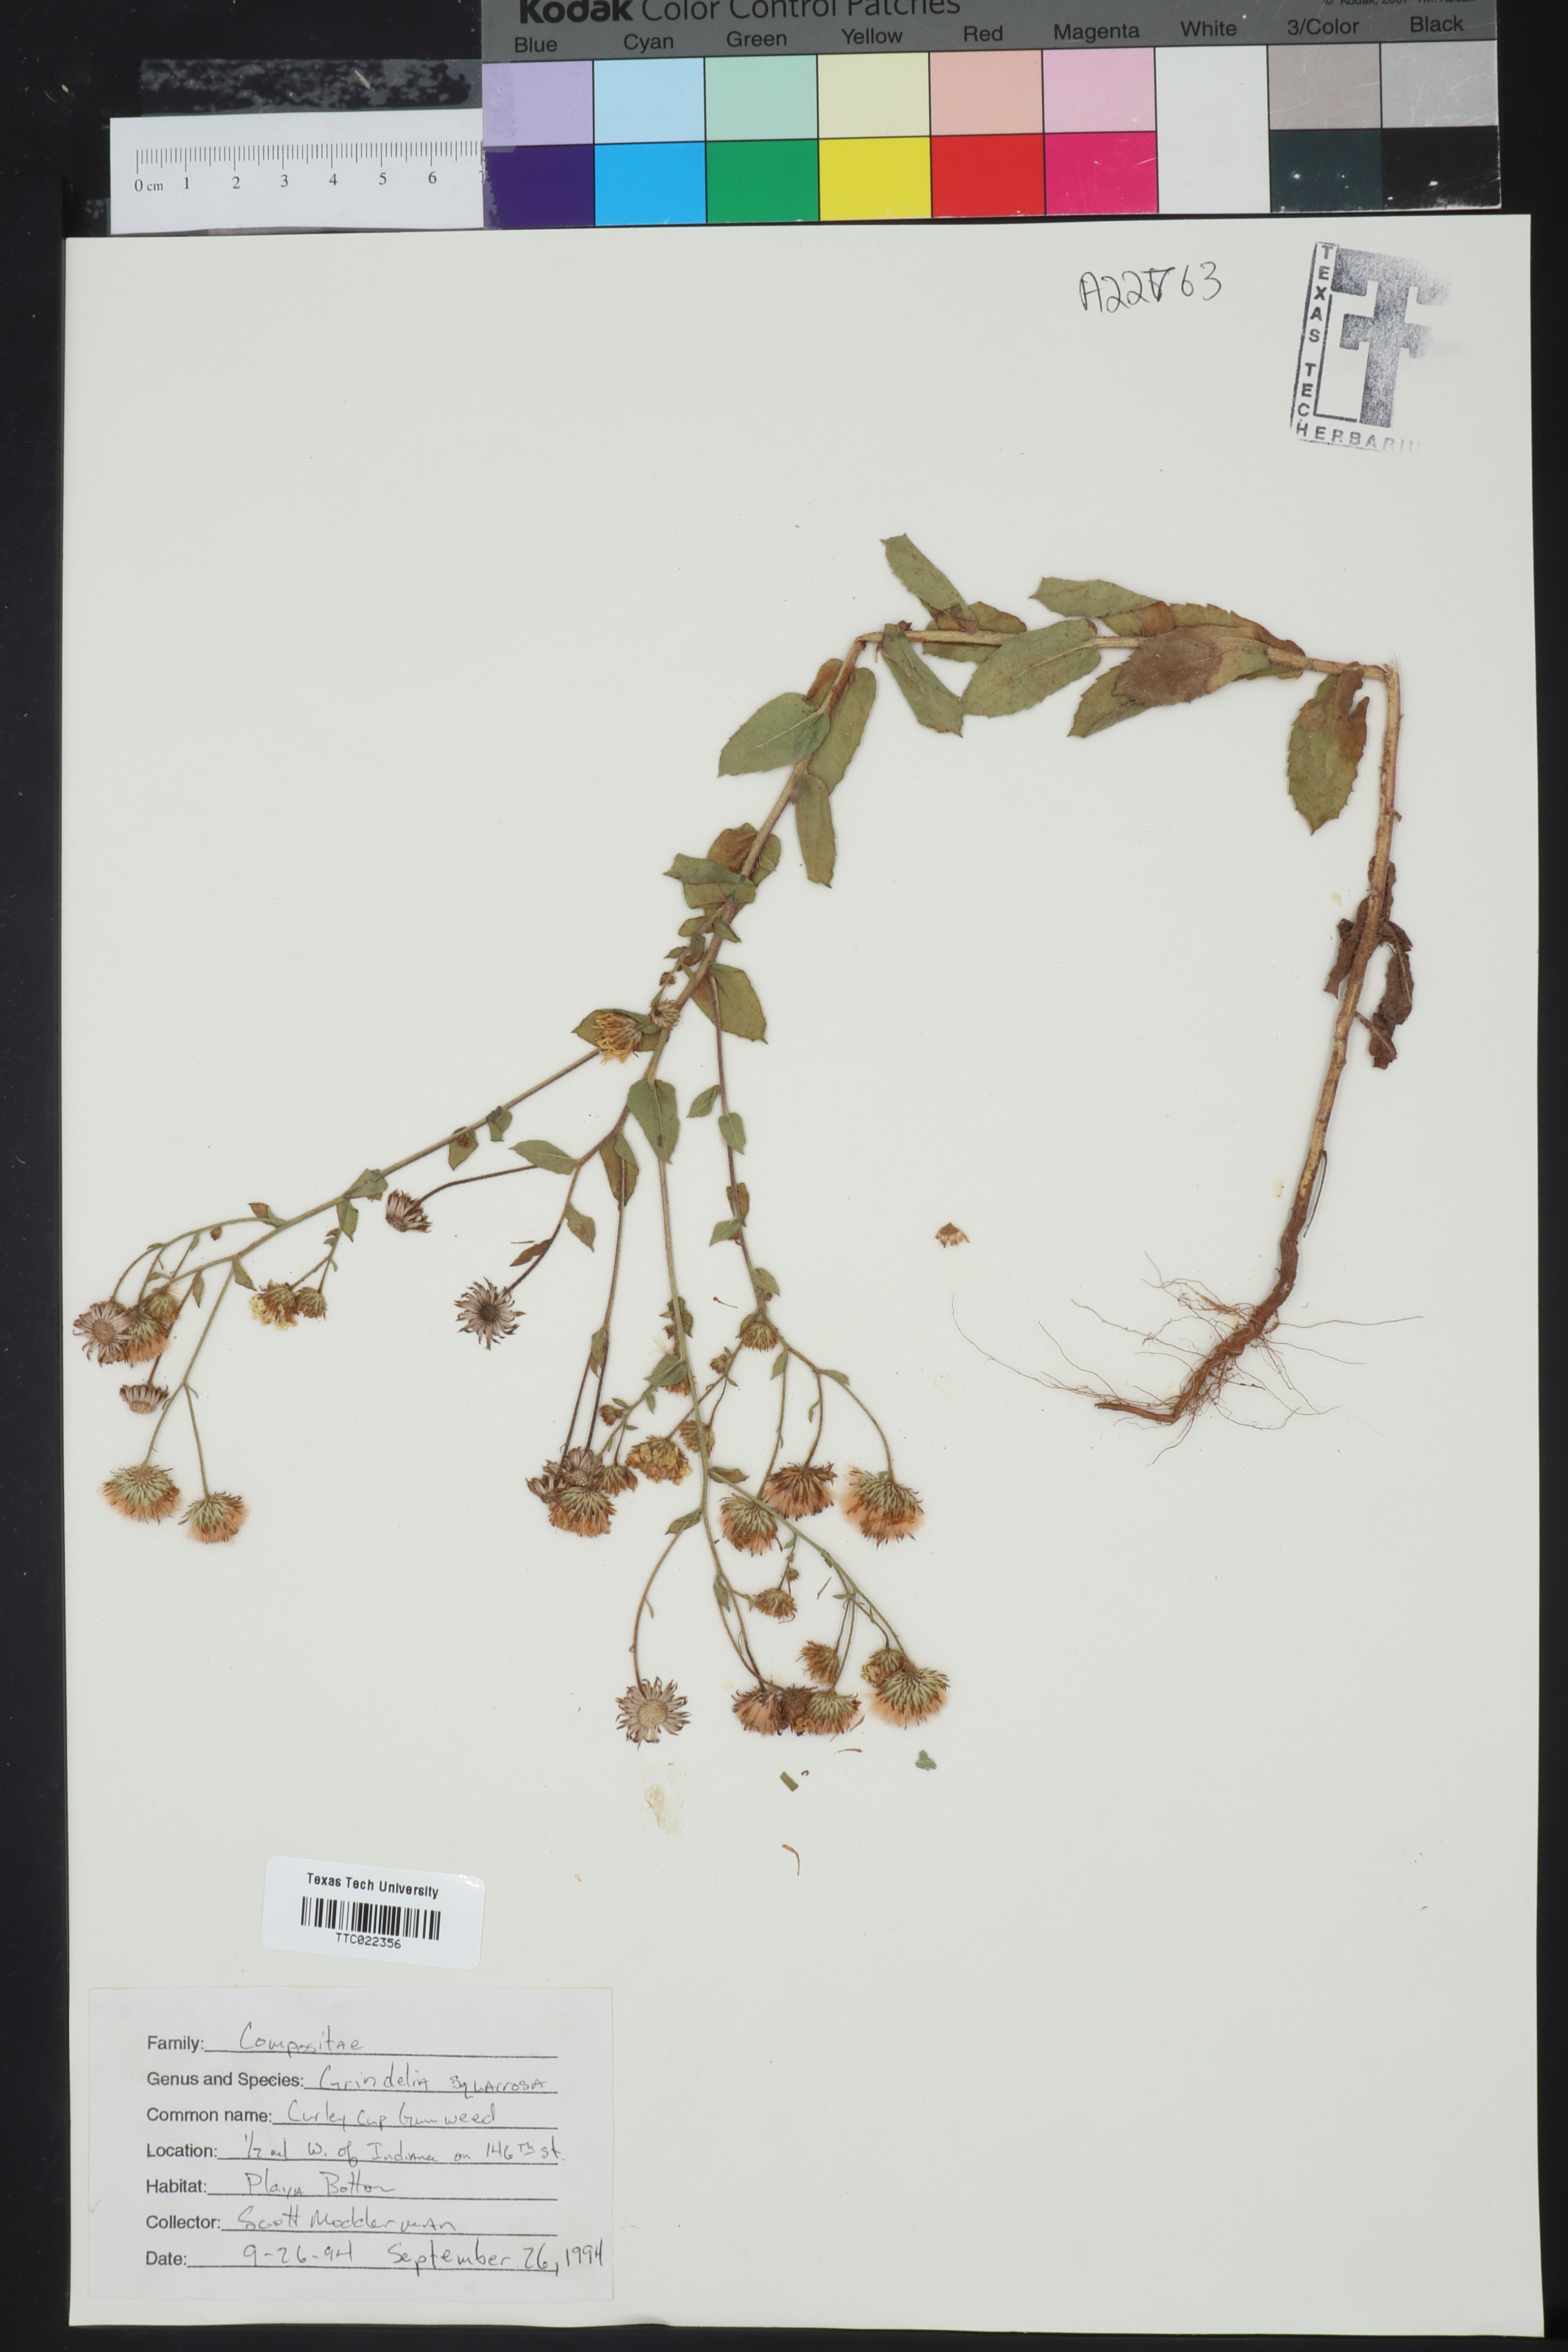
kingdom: Plantae
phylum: Tracheophyta
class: Magnoliopsida
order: Asterales
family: Asteraceae
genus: Grindelia
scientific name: Grindelia squarrosa
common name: Curly-cup gumweed
